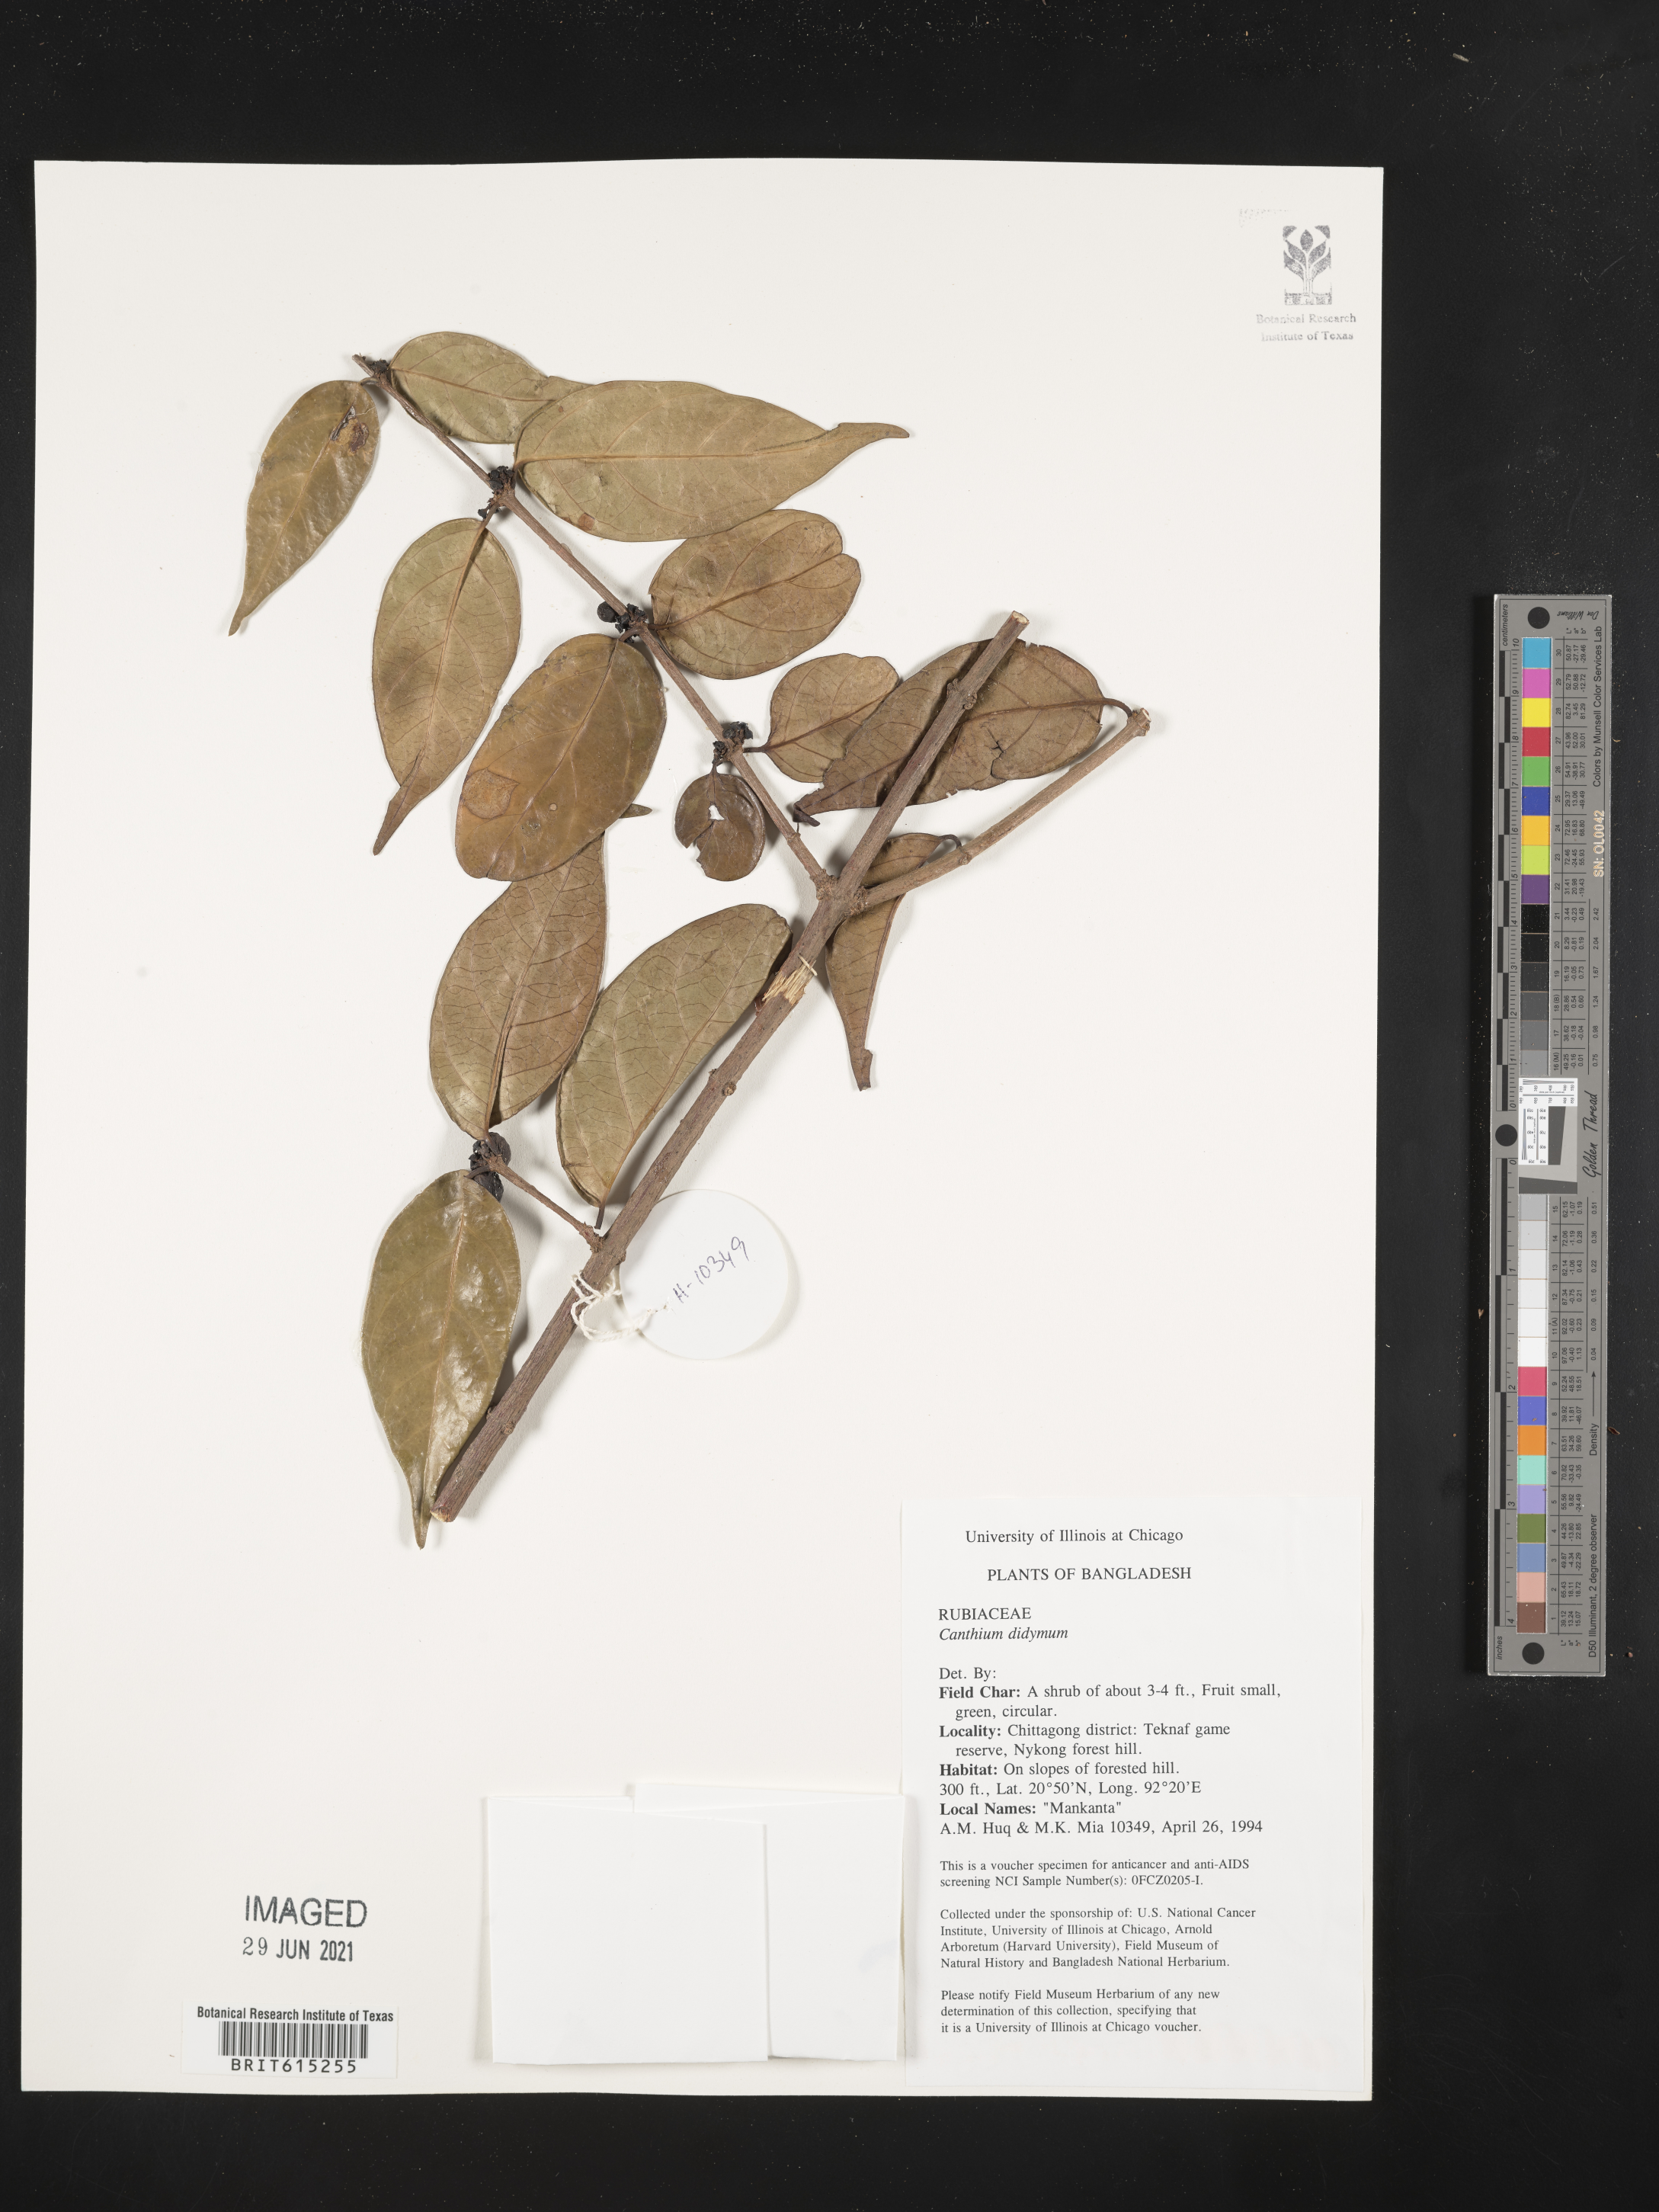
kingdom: Plantae
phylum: Tracheophyta
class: Magnoliopsida
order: Gentianales
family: Rubiaceae
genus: Psydrax
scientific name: Psydrax dicoccos
